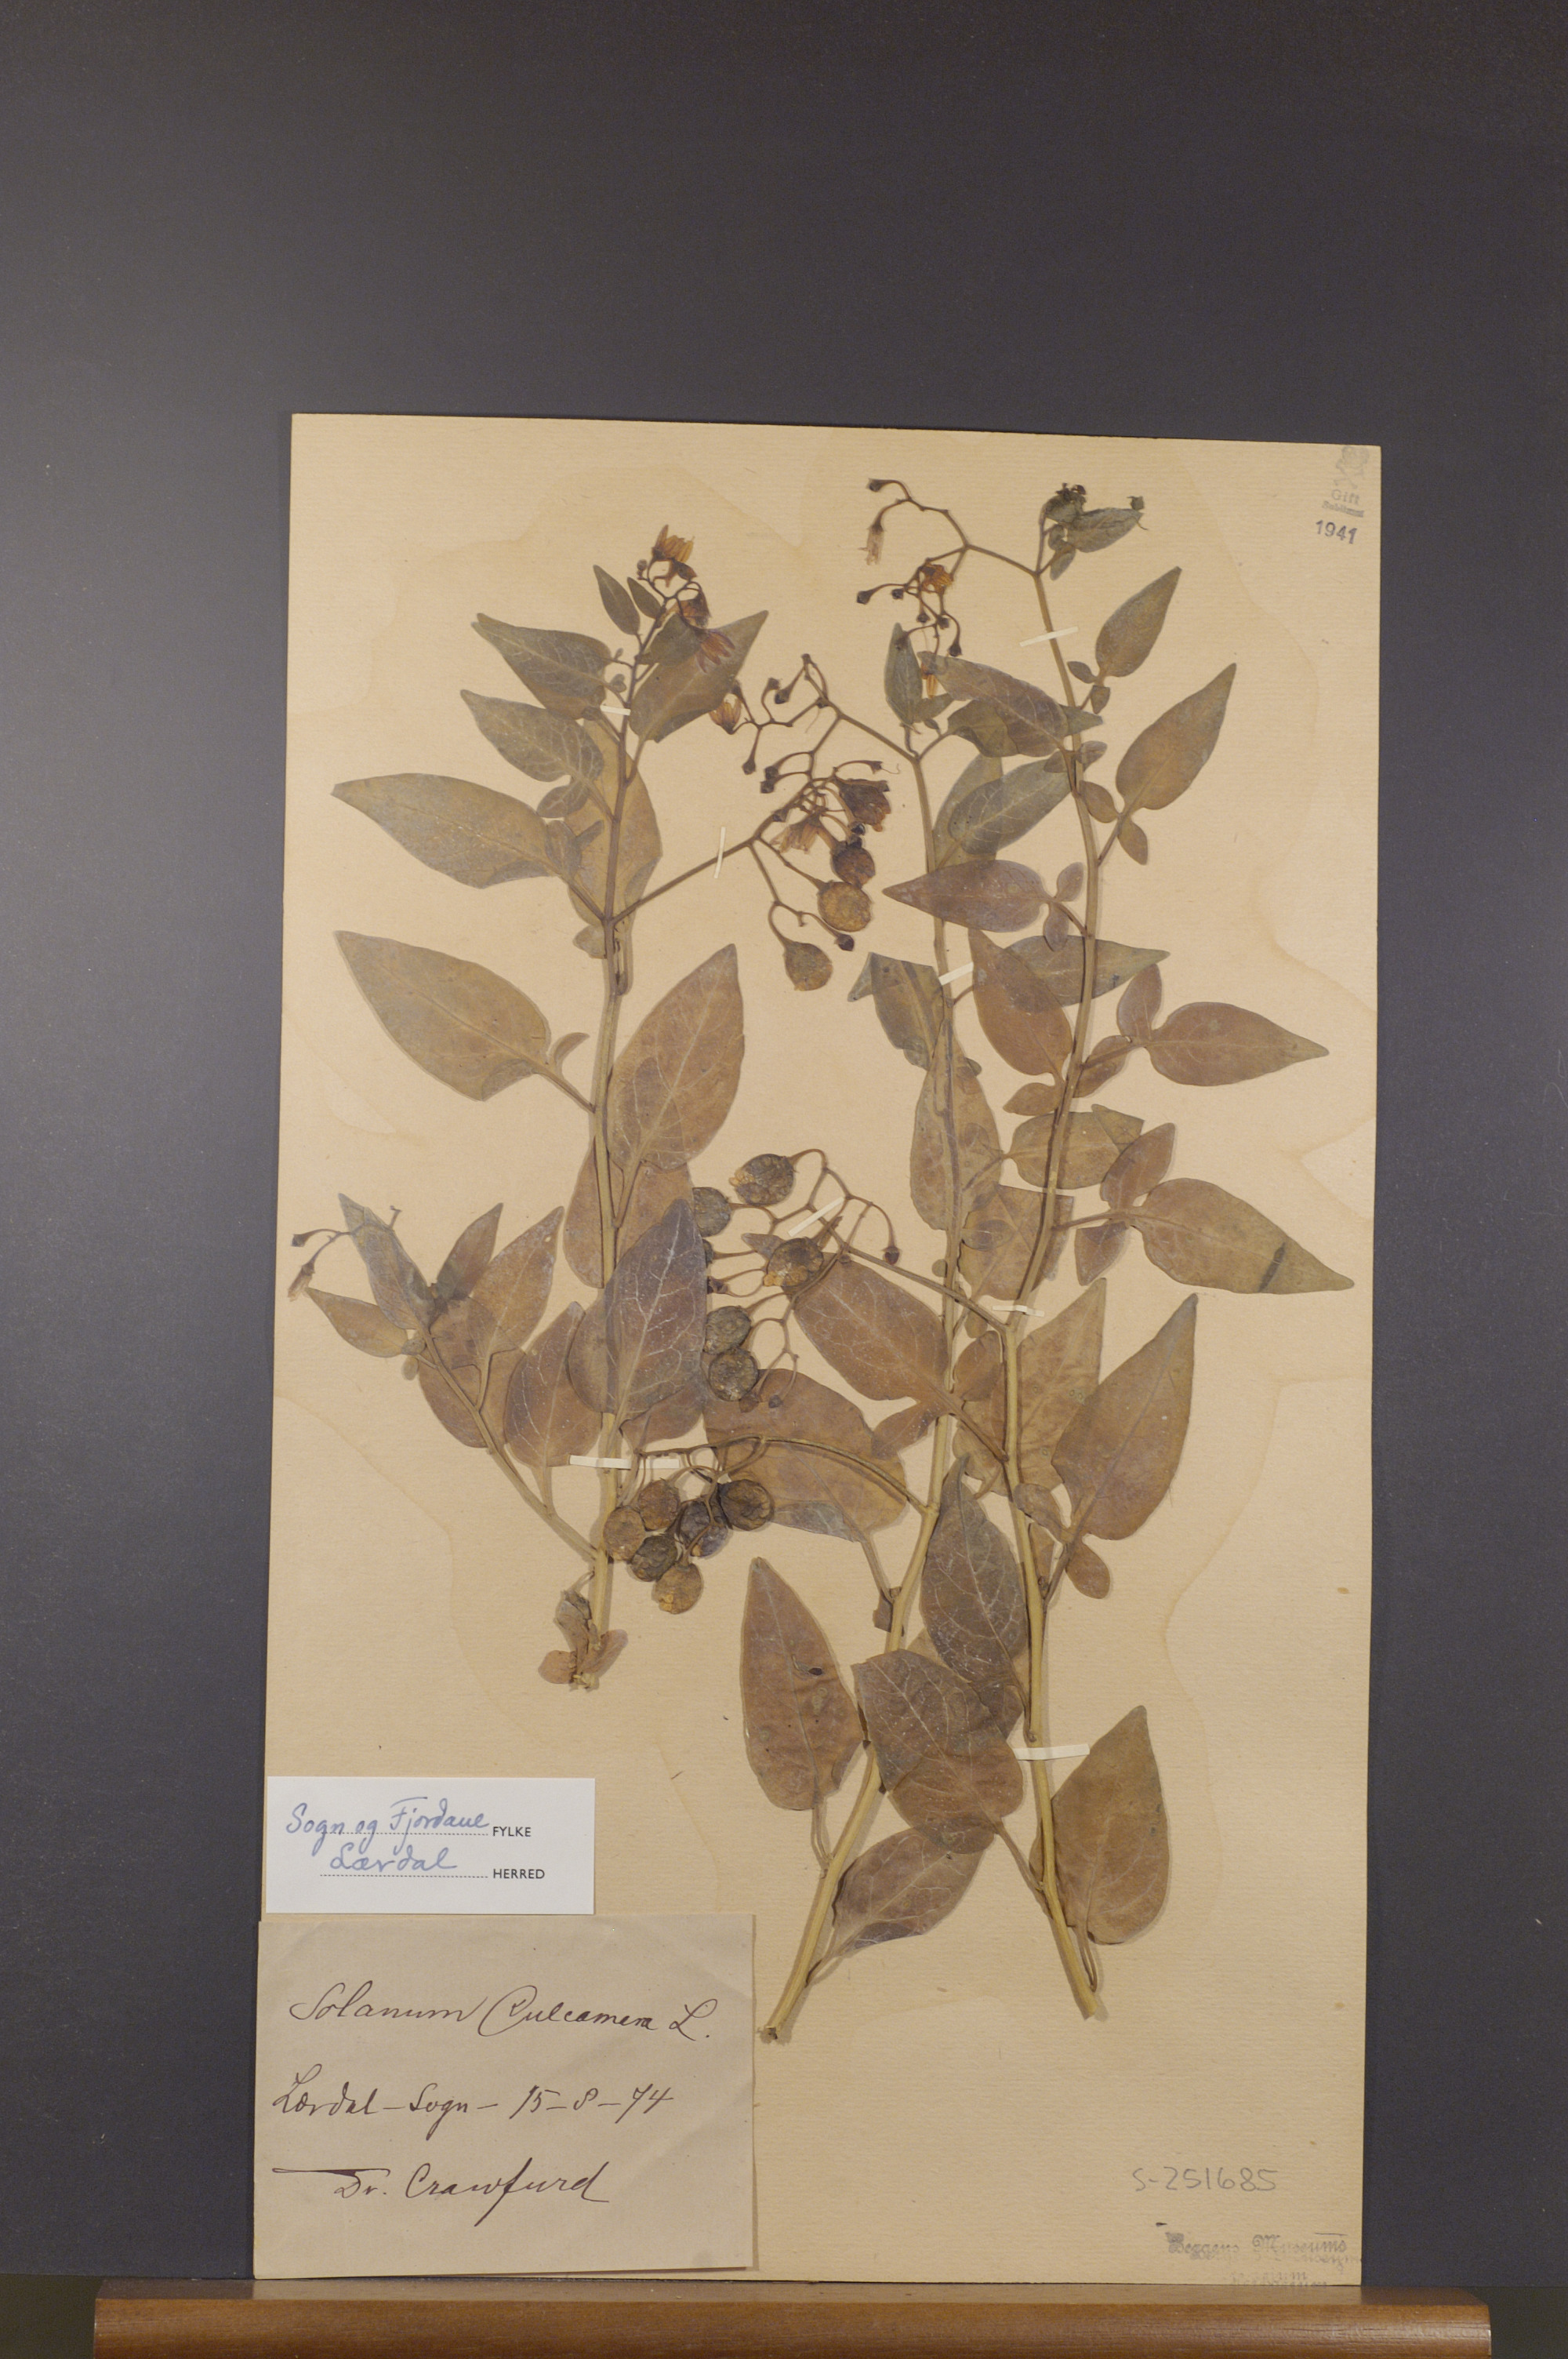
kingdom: Plantae
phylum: Tracheophyta
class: Magnoliopsida
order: Solanales
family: Solanaceae
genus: Solanum
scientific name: Solanum dulcamara
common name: Climbing nightshade
